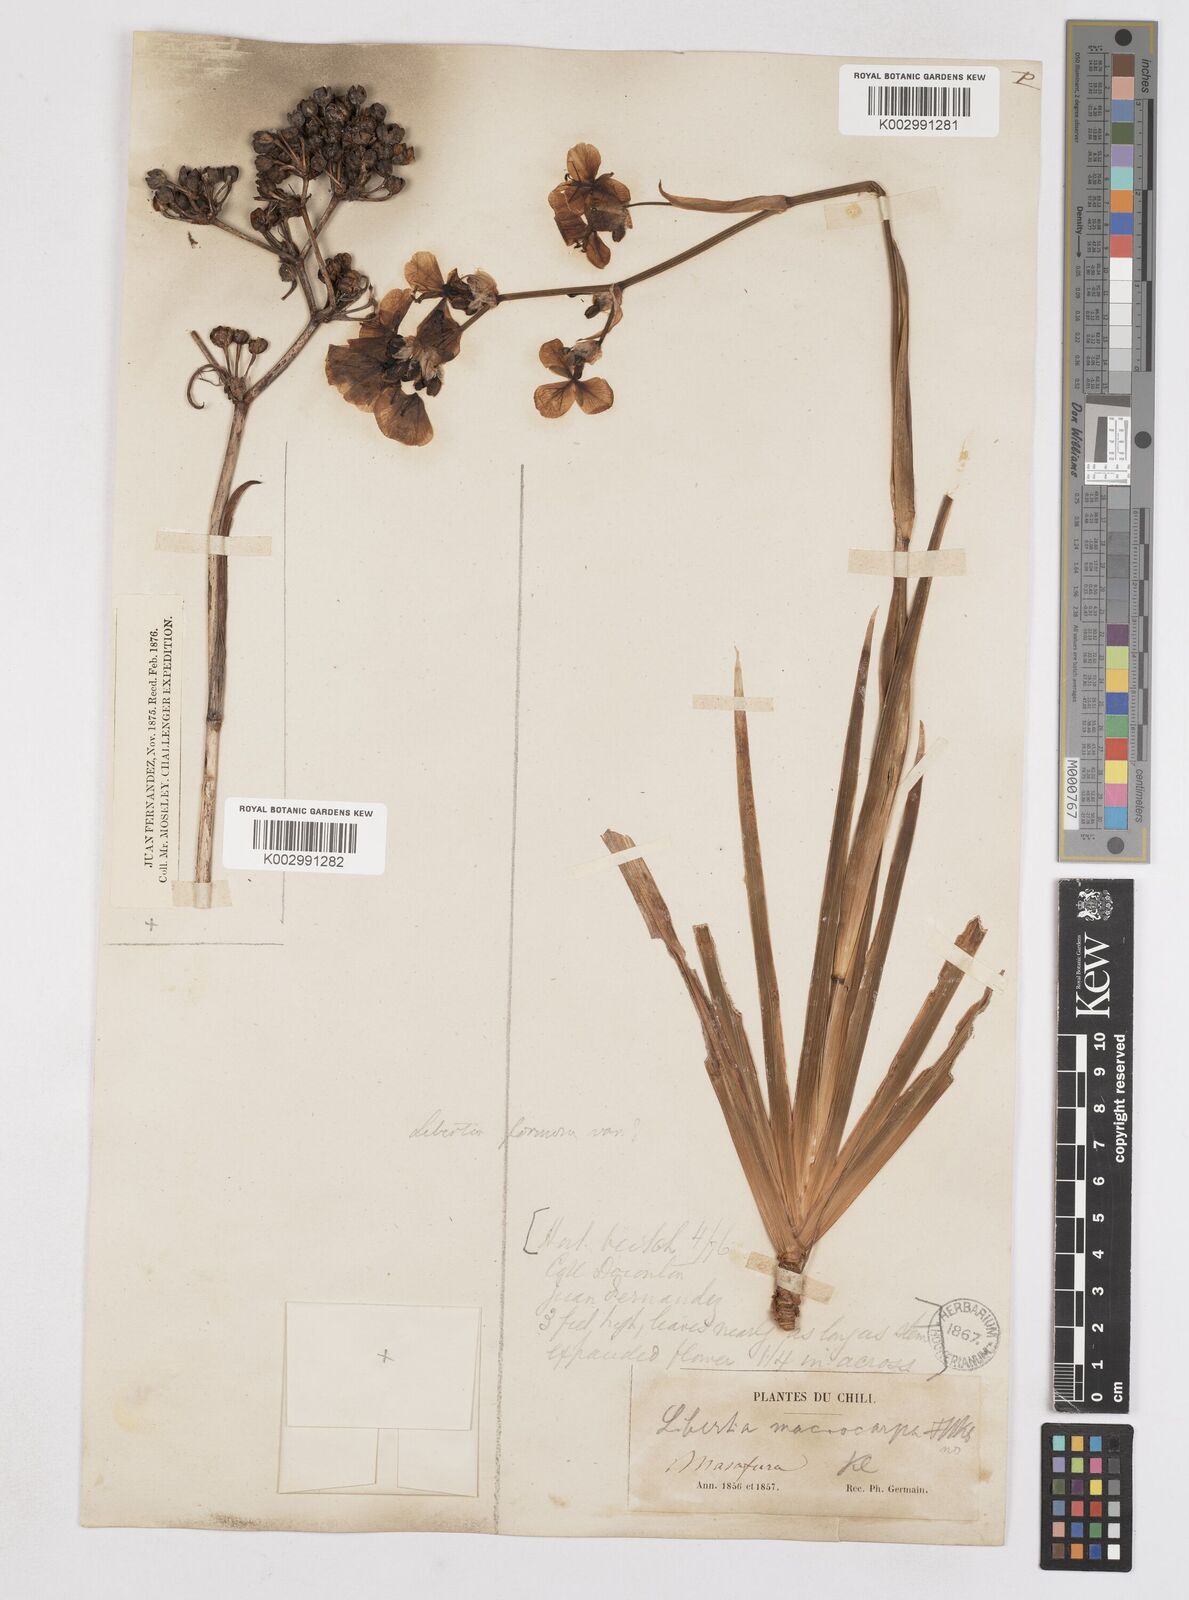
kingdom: Plantae
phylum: Tracheophyta
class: Liliopsida
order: Asparagales
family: Iridaceae
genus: Libertia
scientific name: Libertia ixioides
